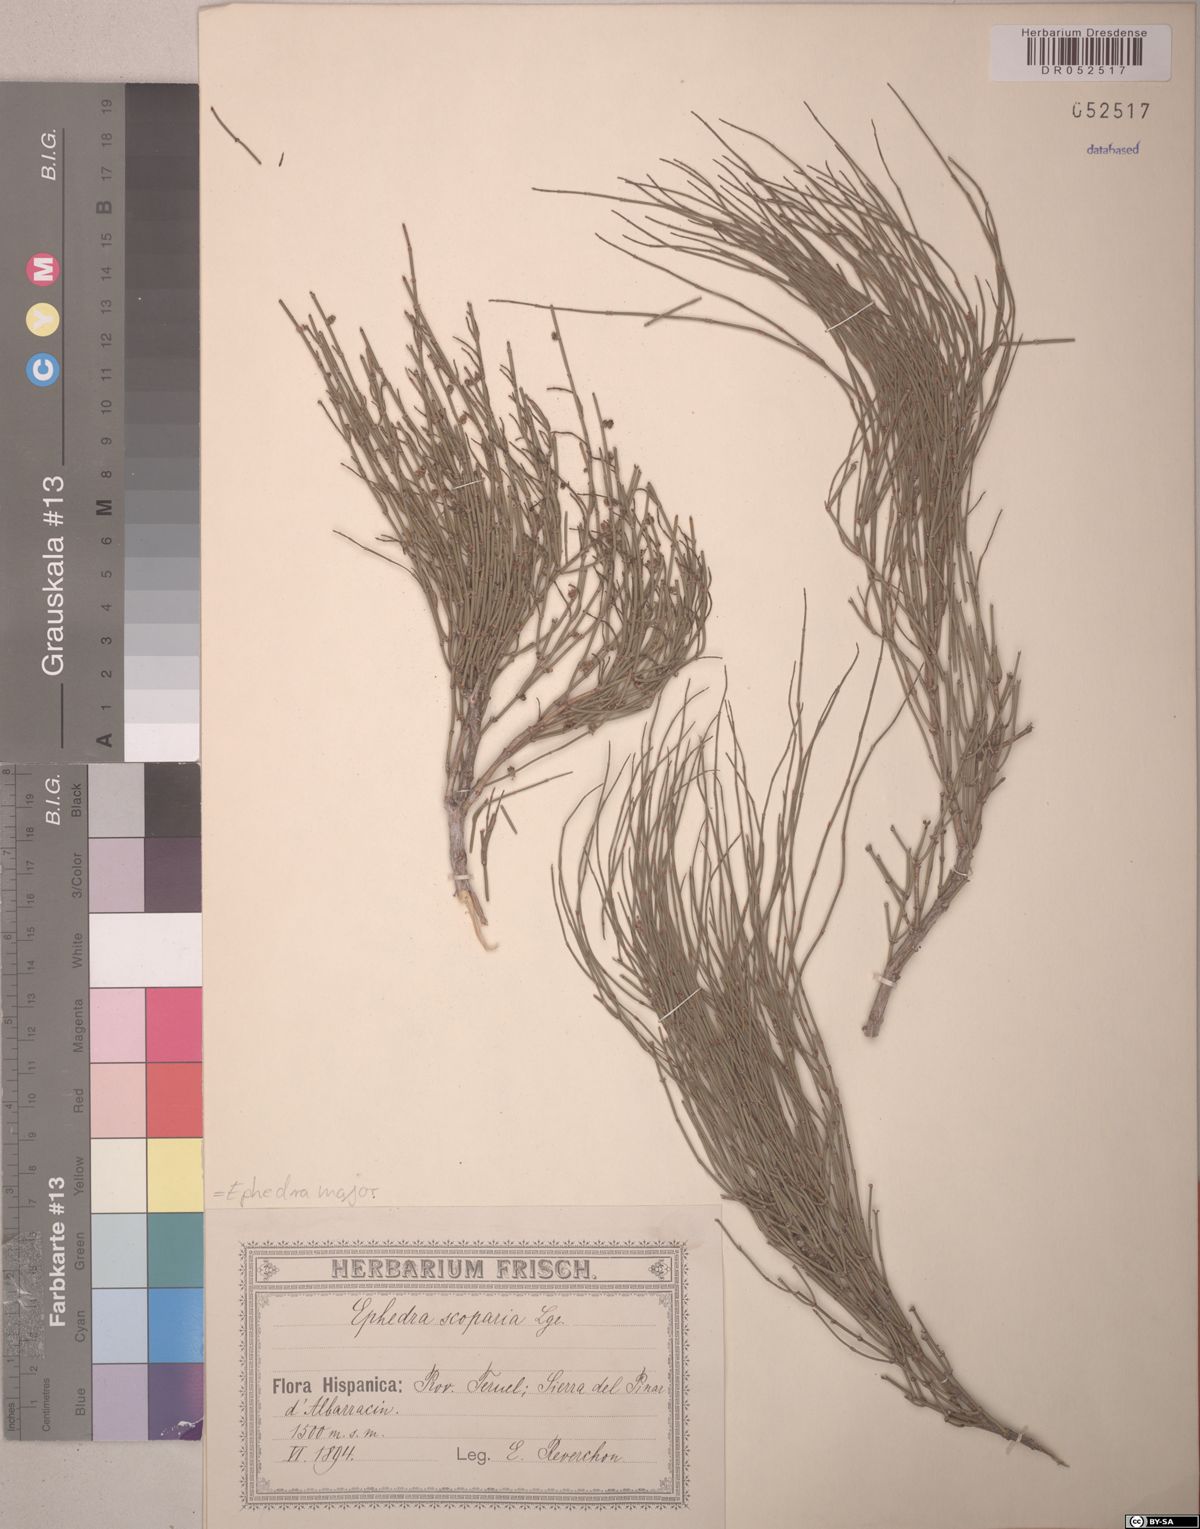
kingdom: Plantae
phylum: Tracheophyta
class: Gnetopsida
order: Ephedrales
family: Ephedraceae
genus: Ephedra
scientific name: Ephedra foeminea
